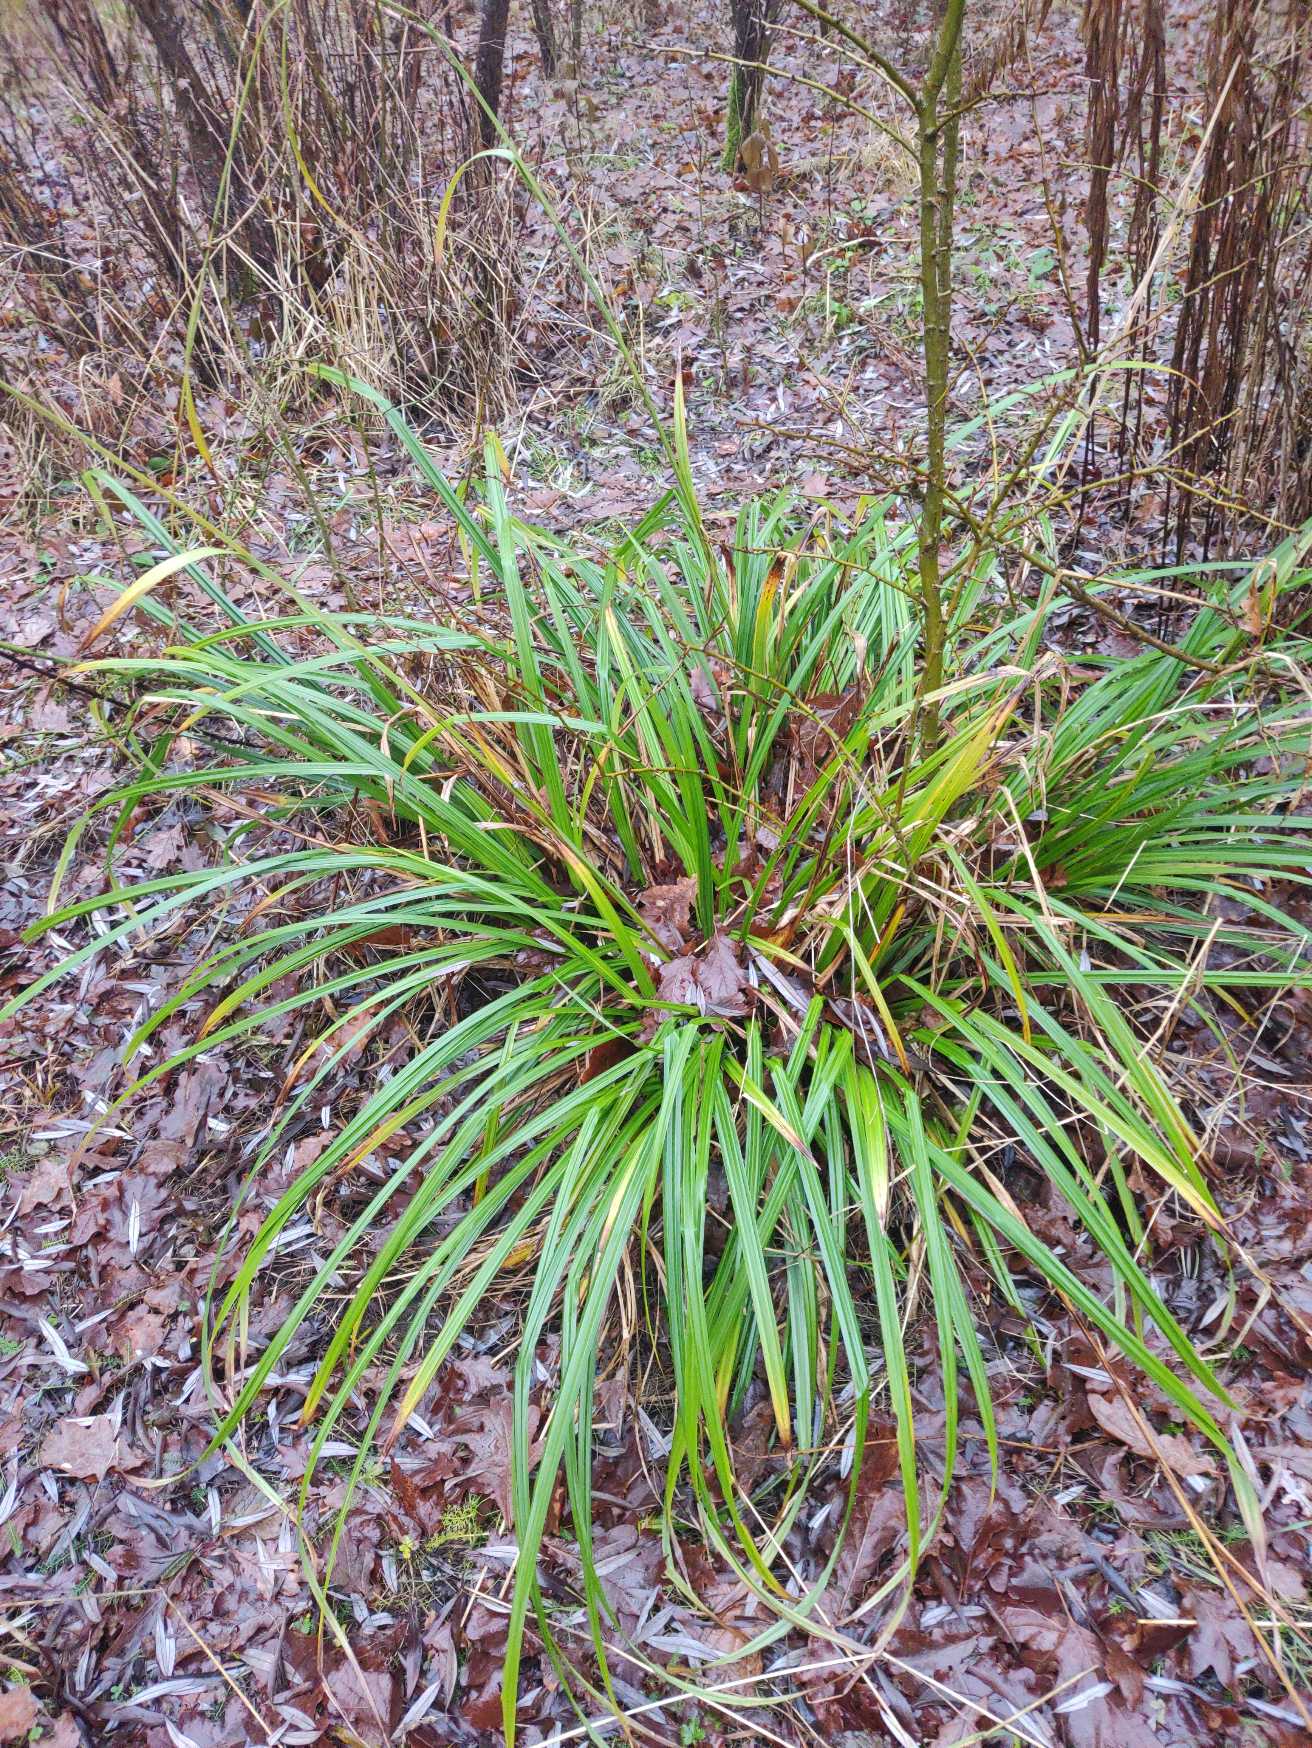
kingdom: Plantae
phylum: Tracheophyta
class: Liliopsida
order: Poales
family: Cyperaceae
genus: Carex
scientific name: Carex pendula
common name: Kæmpe-star
